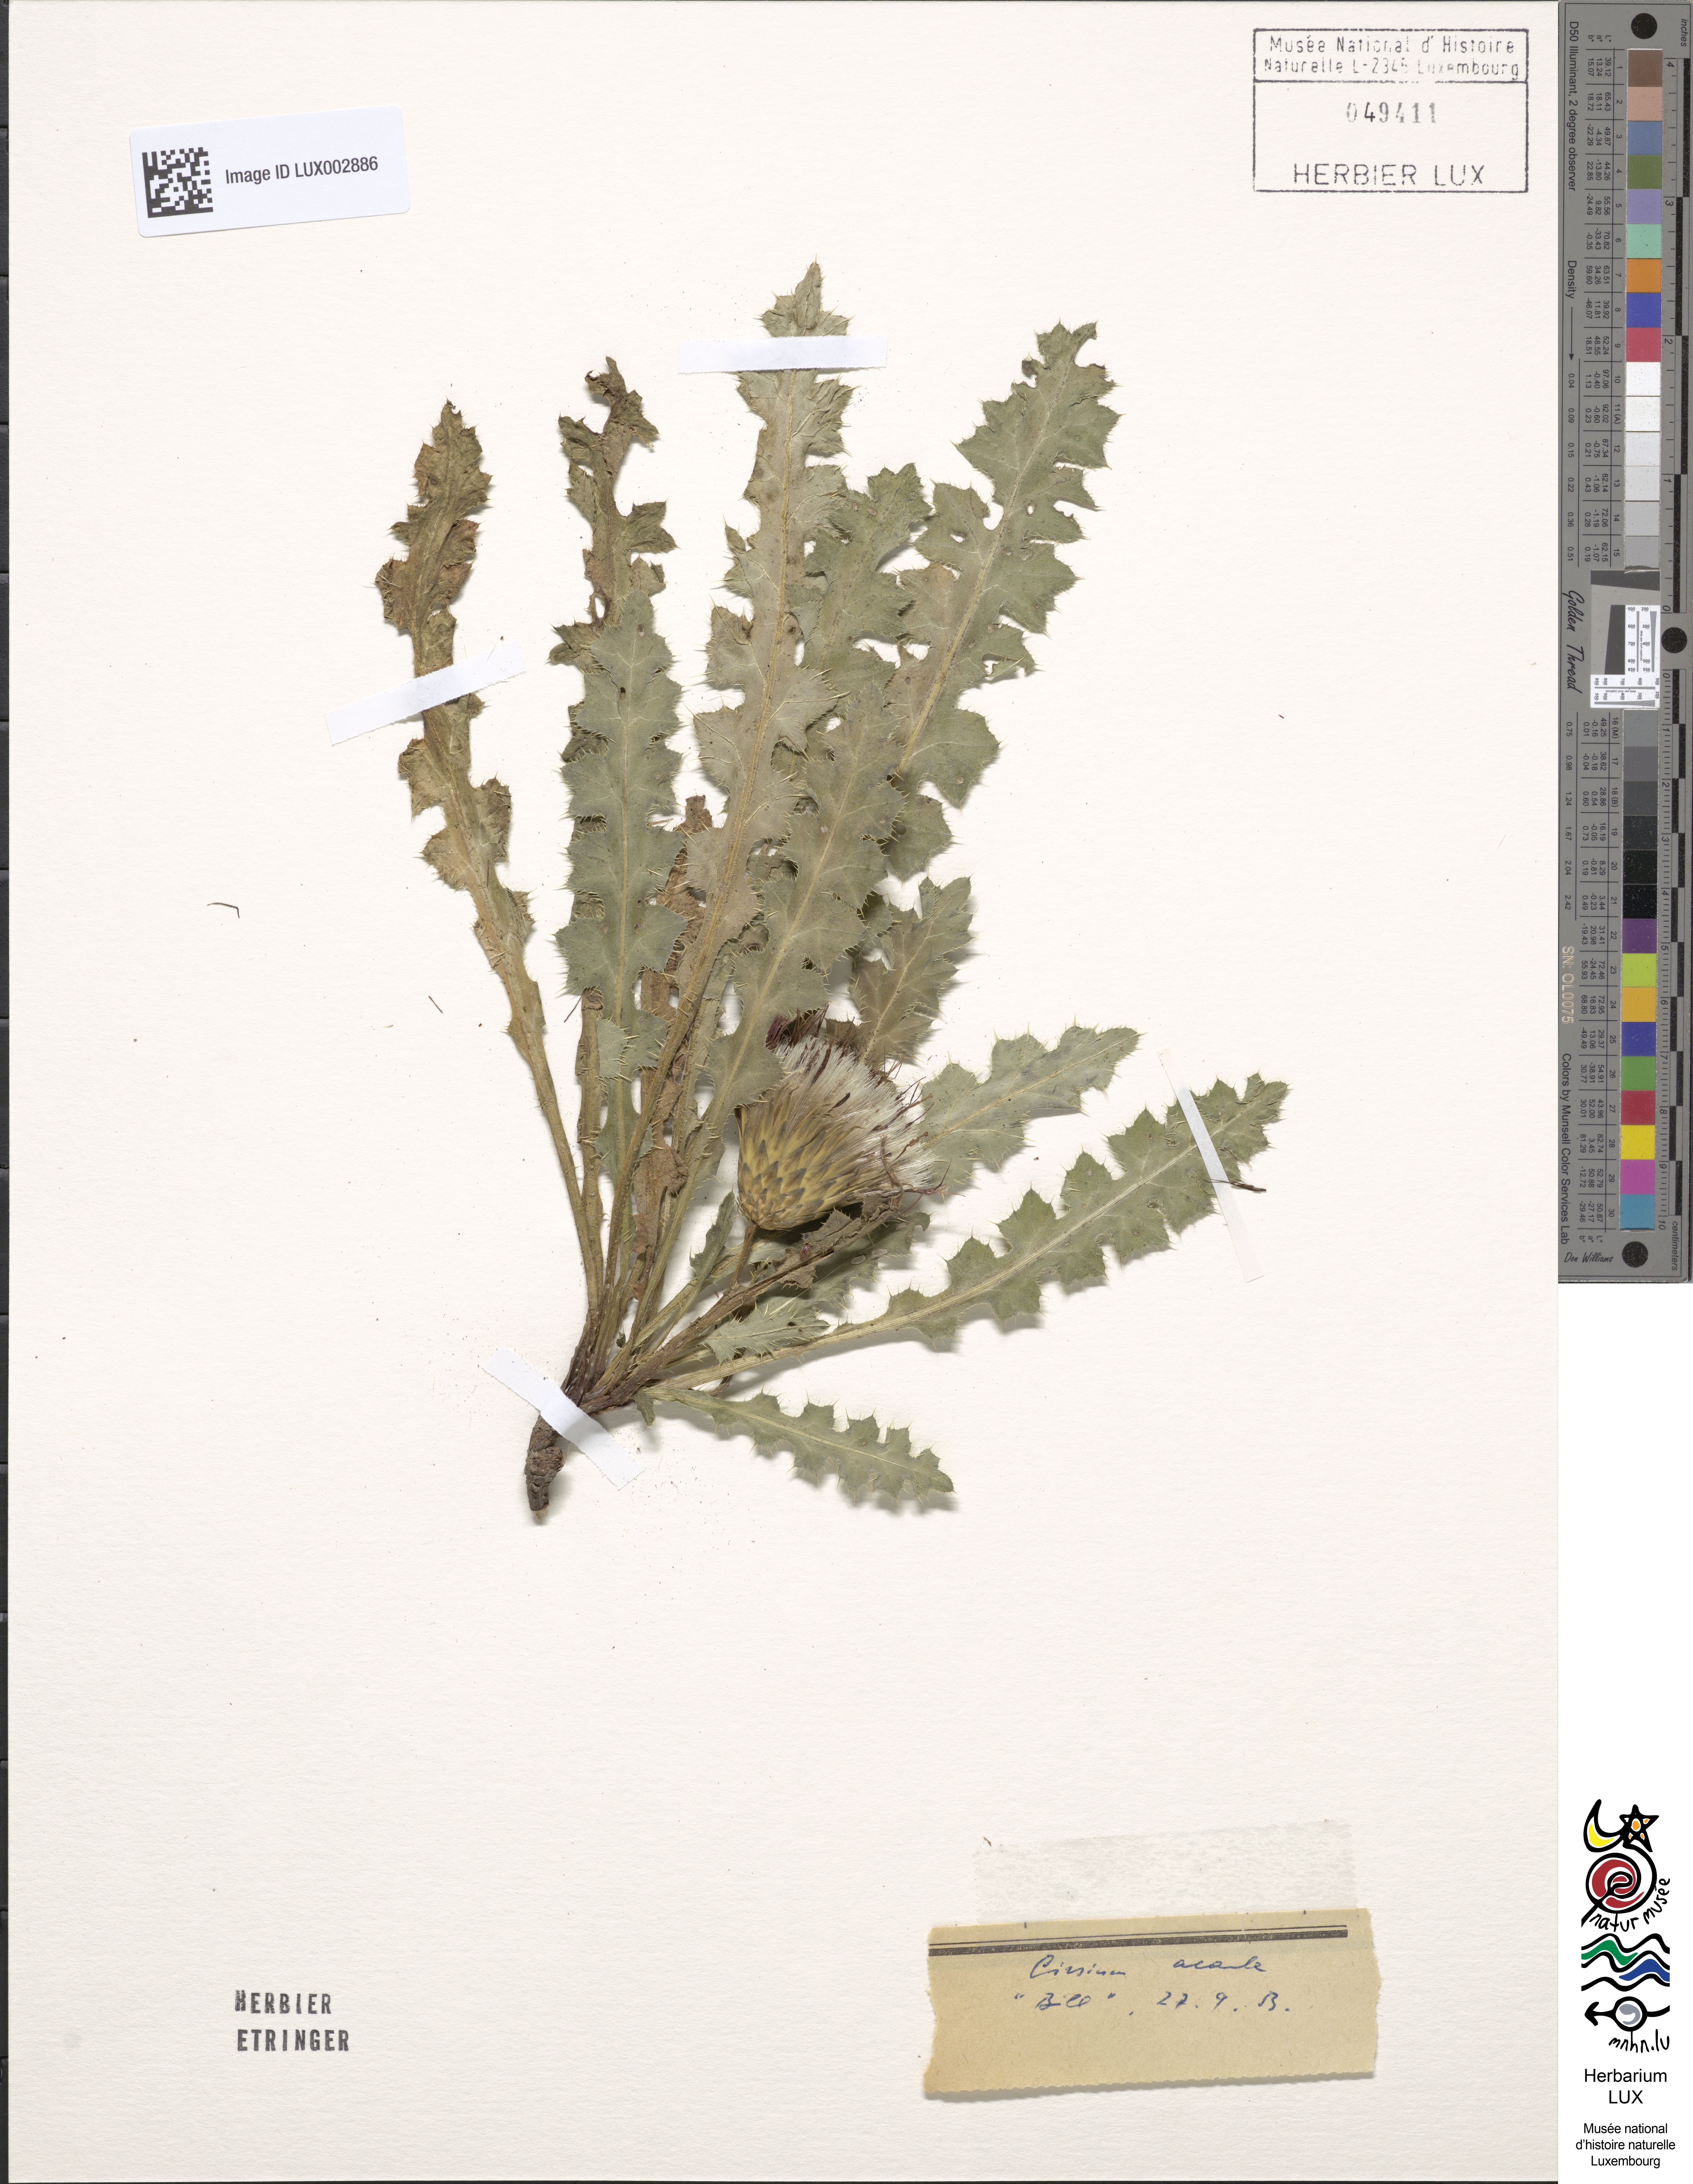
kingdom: Plantae
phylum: Tracheophyta
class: Magnoliopsida
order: Asterales
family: Asteraceae
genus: Cirsium
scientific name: Cirsium acaulon
